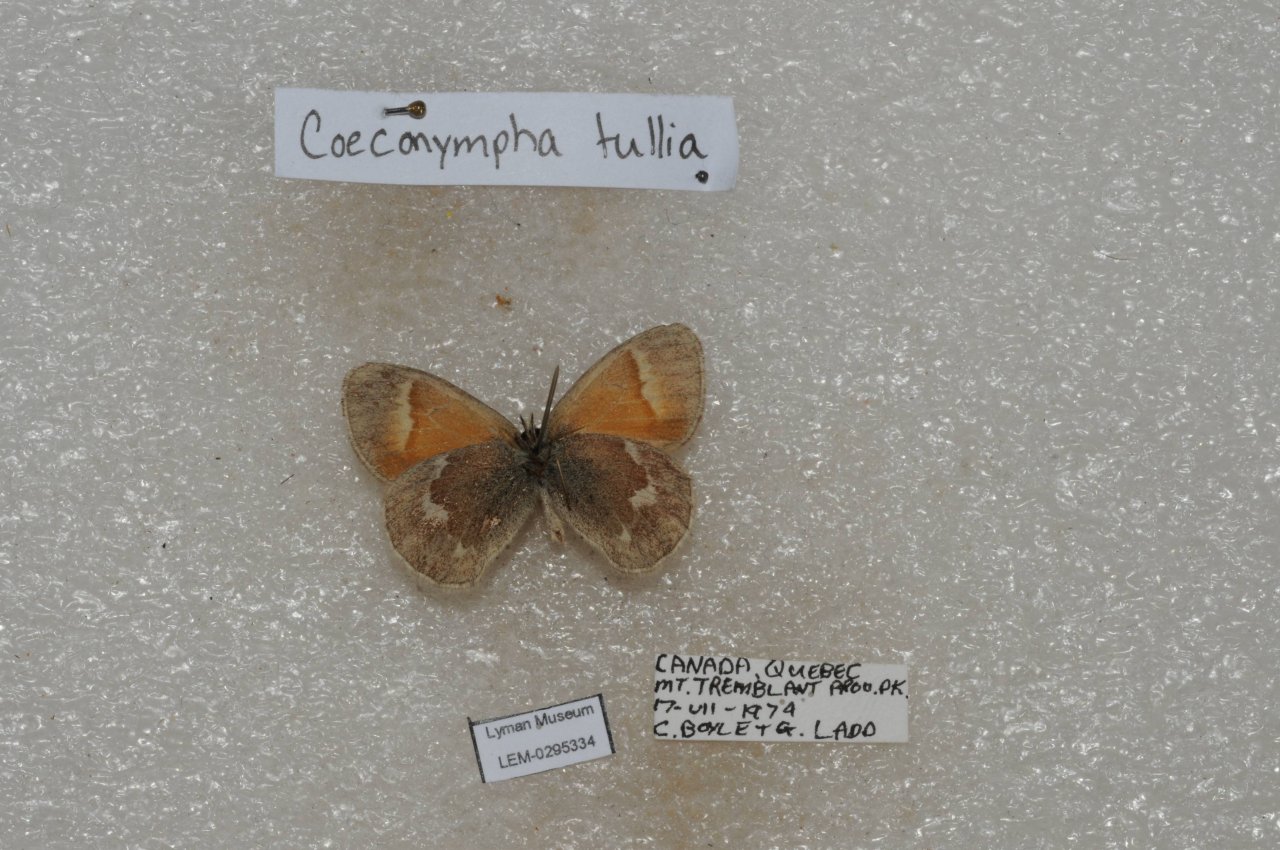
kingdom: Animalia
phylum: Arthropoda
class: Insecta
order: Lepidoptera
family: Nymphalidae
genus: Coenonympha
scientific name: Coenonympha tullia
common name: Large Heath
